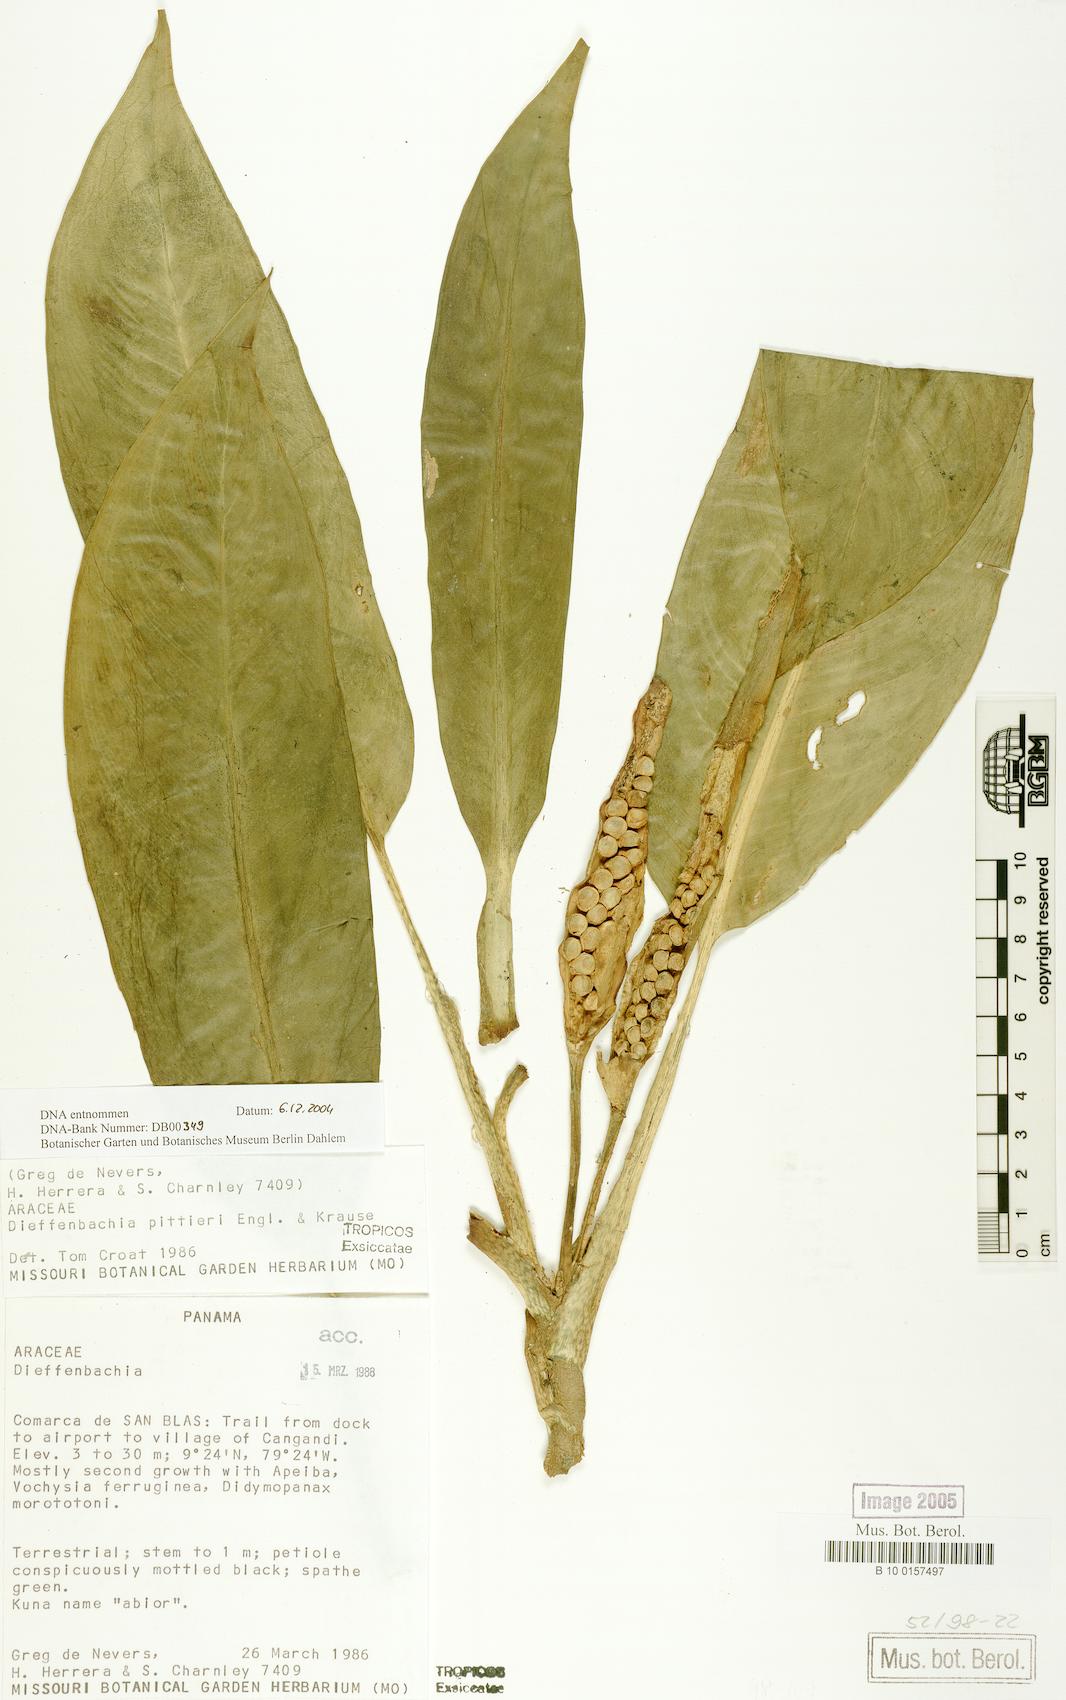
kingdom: Plantae
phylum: Tracheophyta
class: Liliopsida
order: Alismatales
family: Araceae
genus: Dieffenbachia
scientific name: Dieffenbachia pittieri
